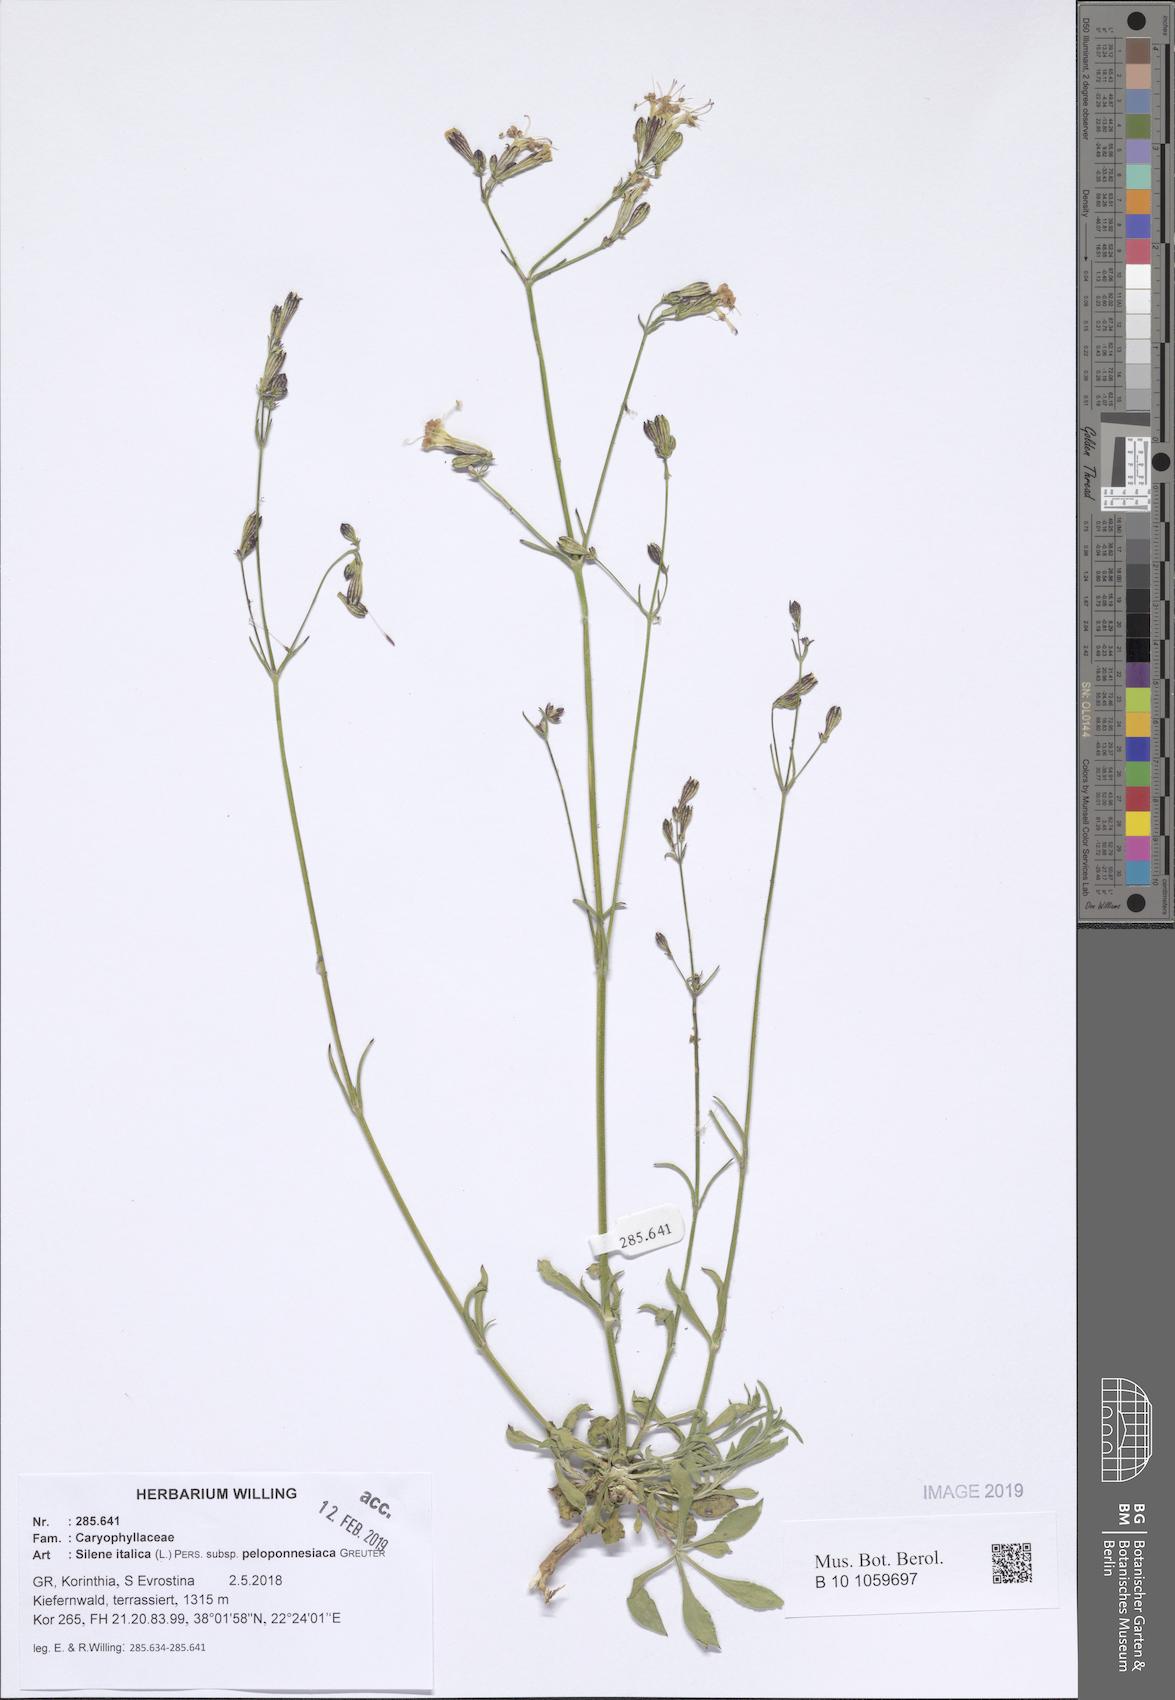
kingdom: Plantae
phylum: Tracheophyta
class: Magnoliopsida
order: Caryophyllales
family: Caryophyllaceae
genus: Silene
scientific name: Silene italica
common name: Italian catchfly
